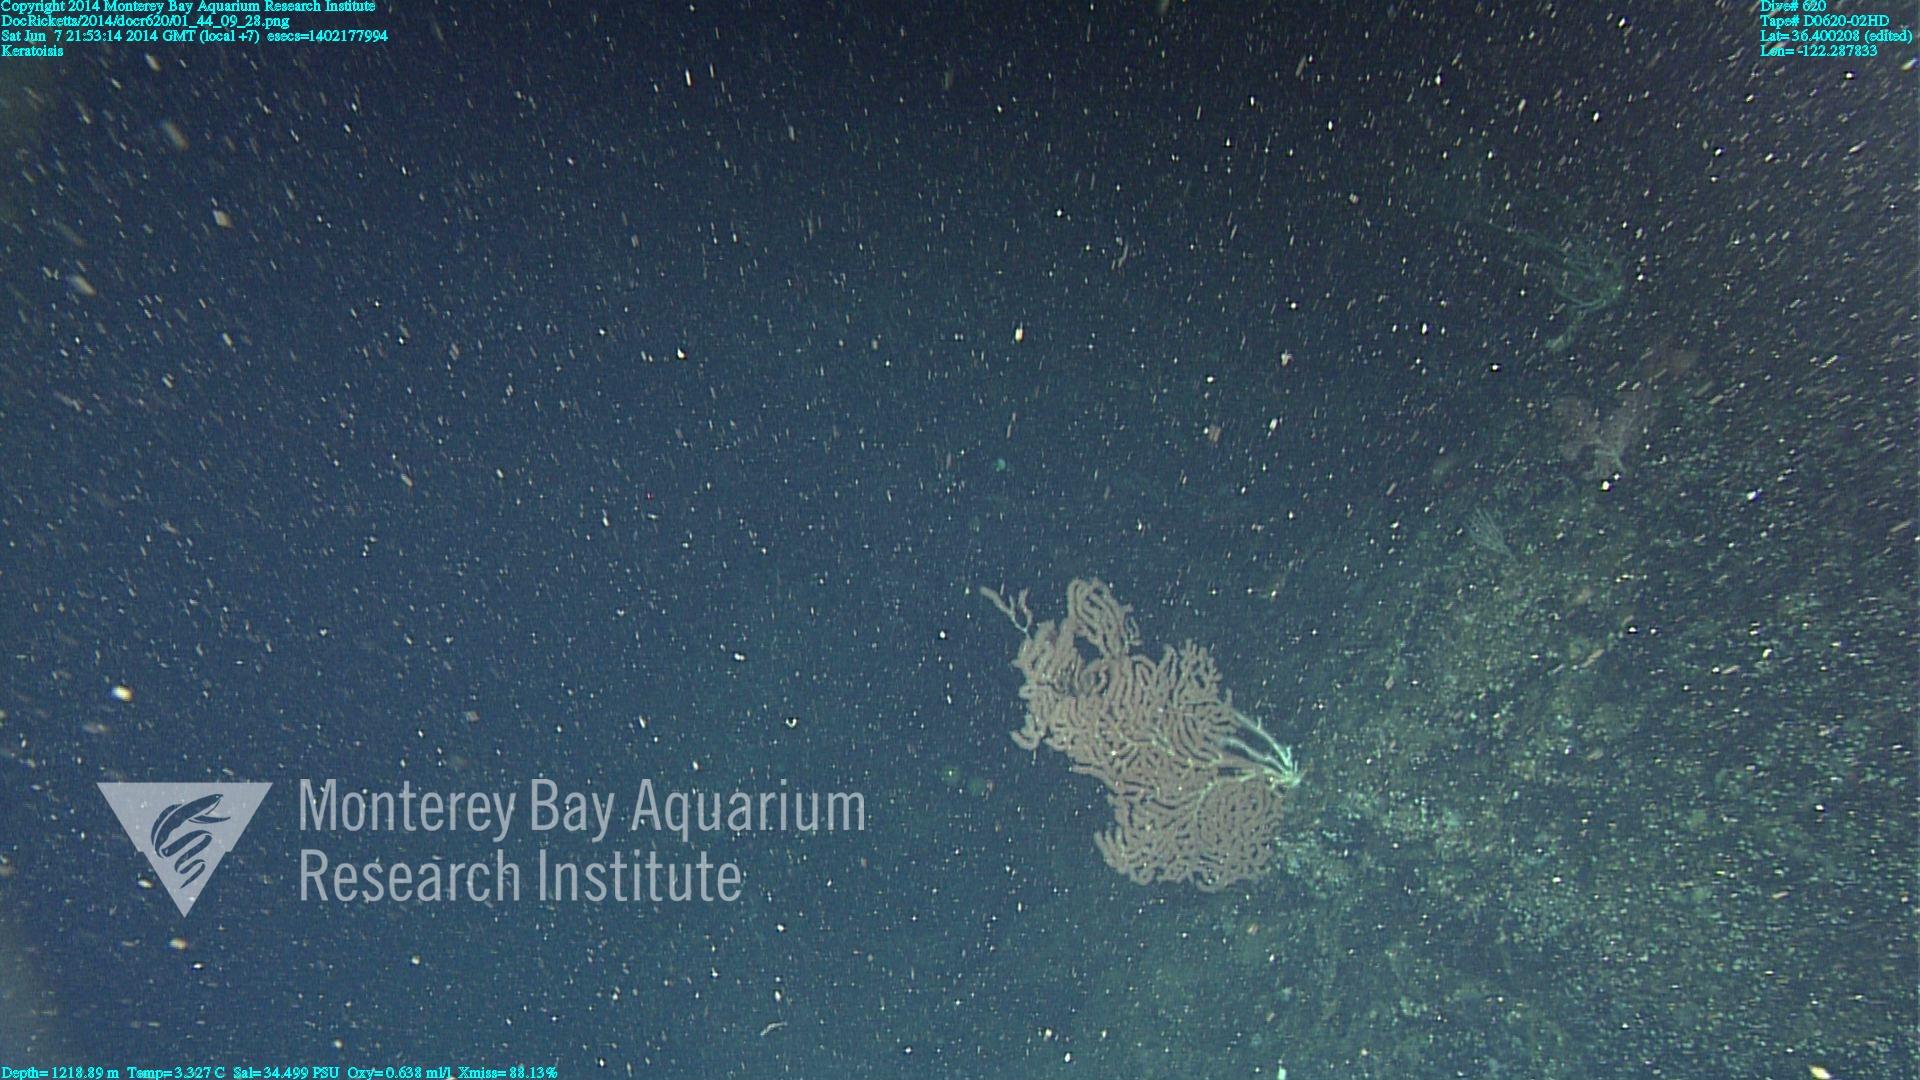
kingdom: Animalia
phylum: Cnidaria
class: Anthozoa
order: Scleralcyonacea
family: Keratoisididae
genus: Keratoisis
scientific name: Keratoisis
